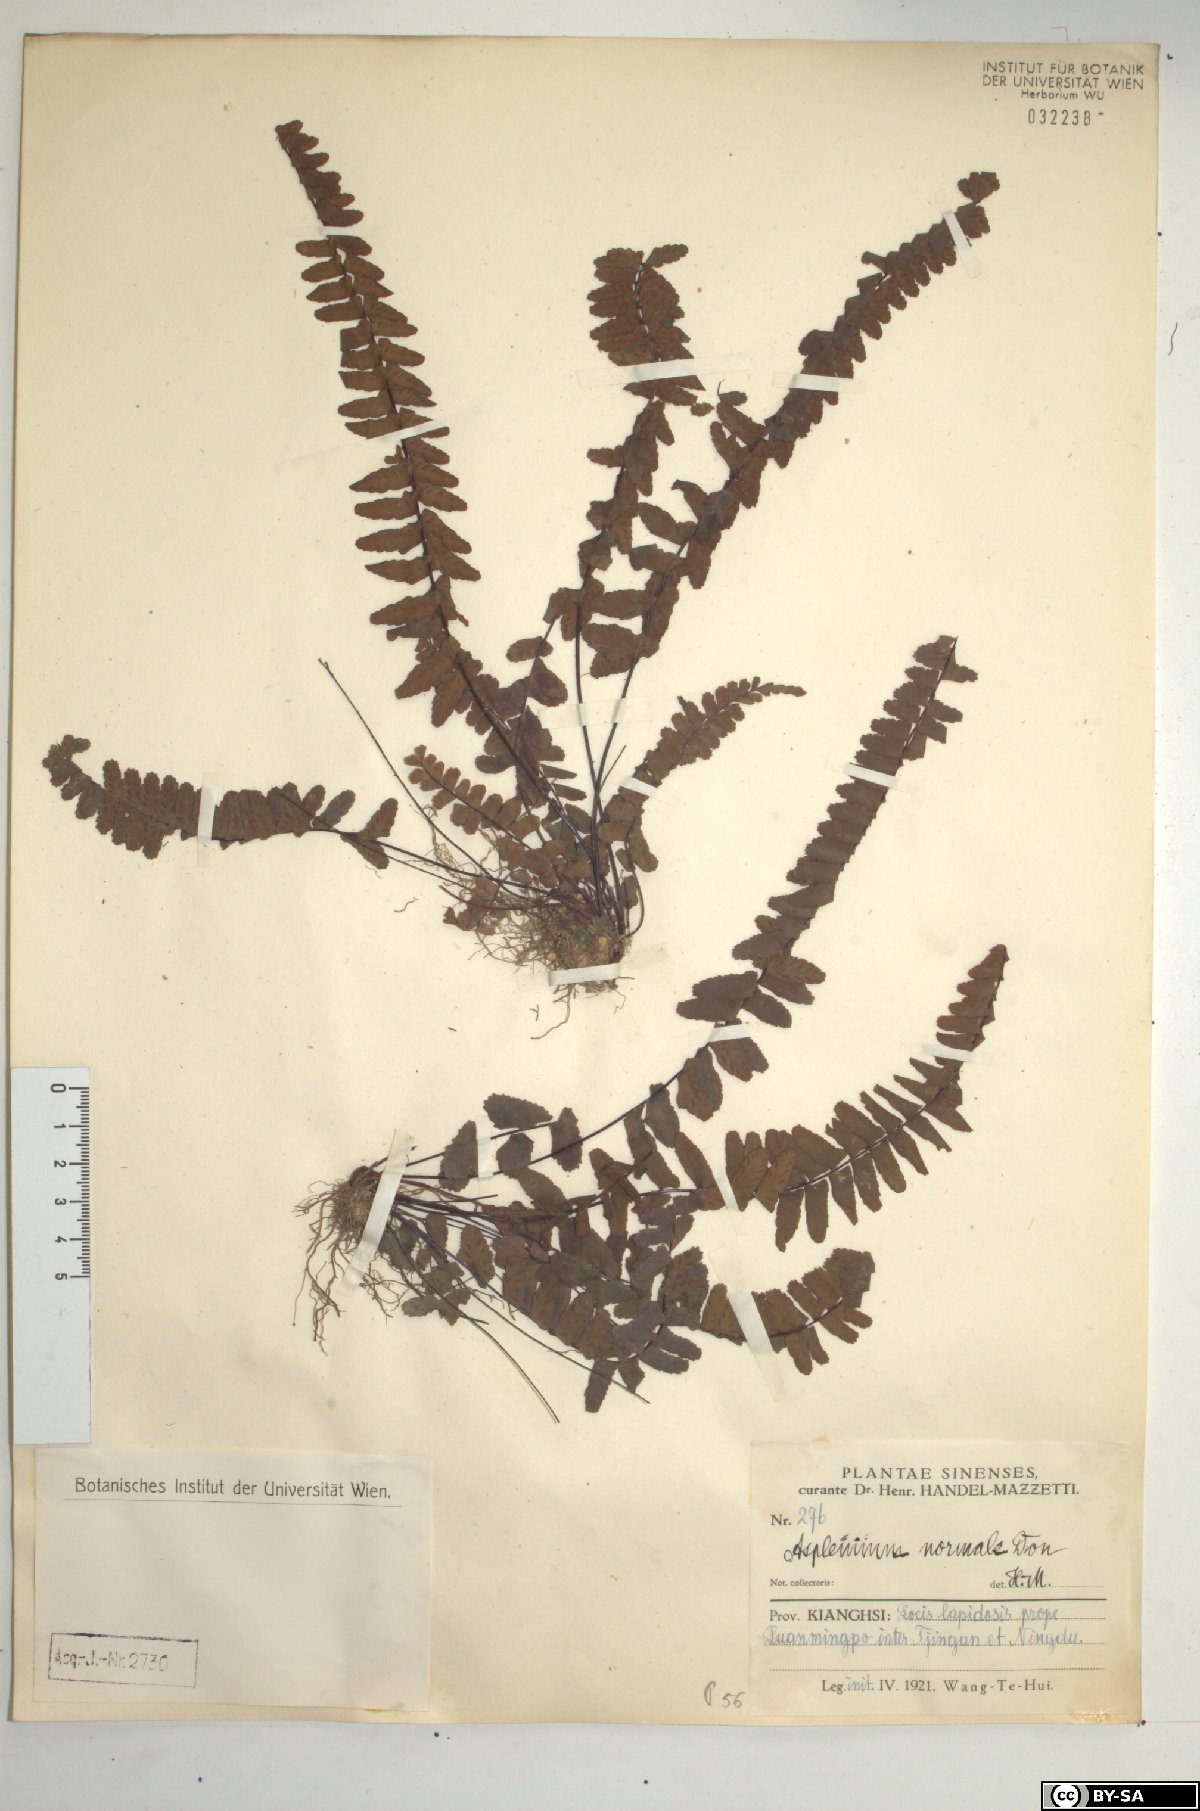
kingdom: Plantae
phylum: Tracheophyta
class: Polypodiopsida
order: Polypodiales
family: Aspleniaceae
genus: Asplenium
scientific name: Asplenium normale
